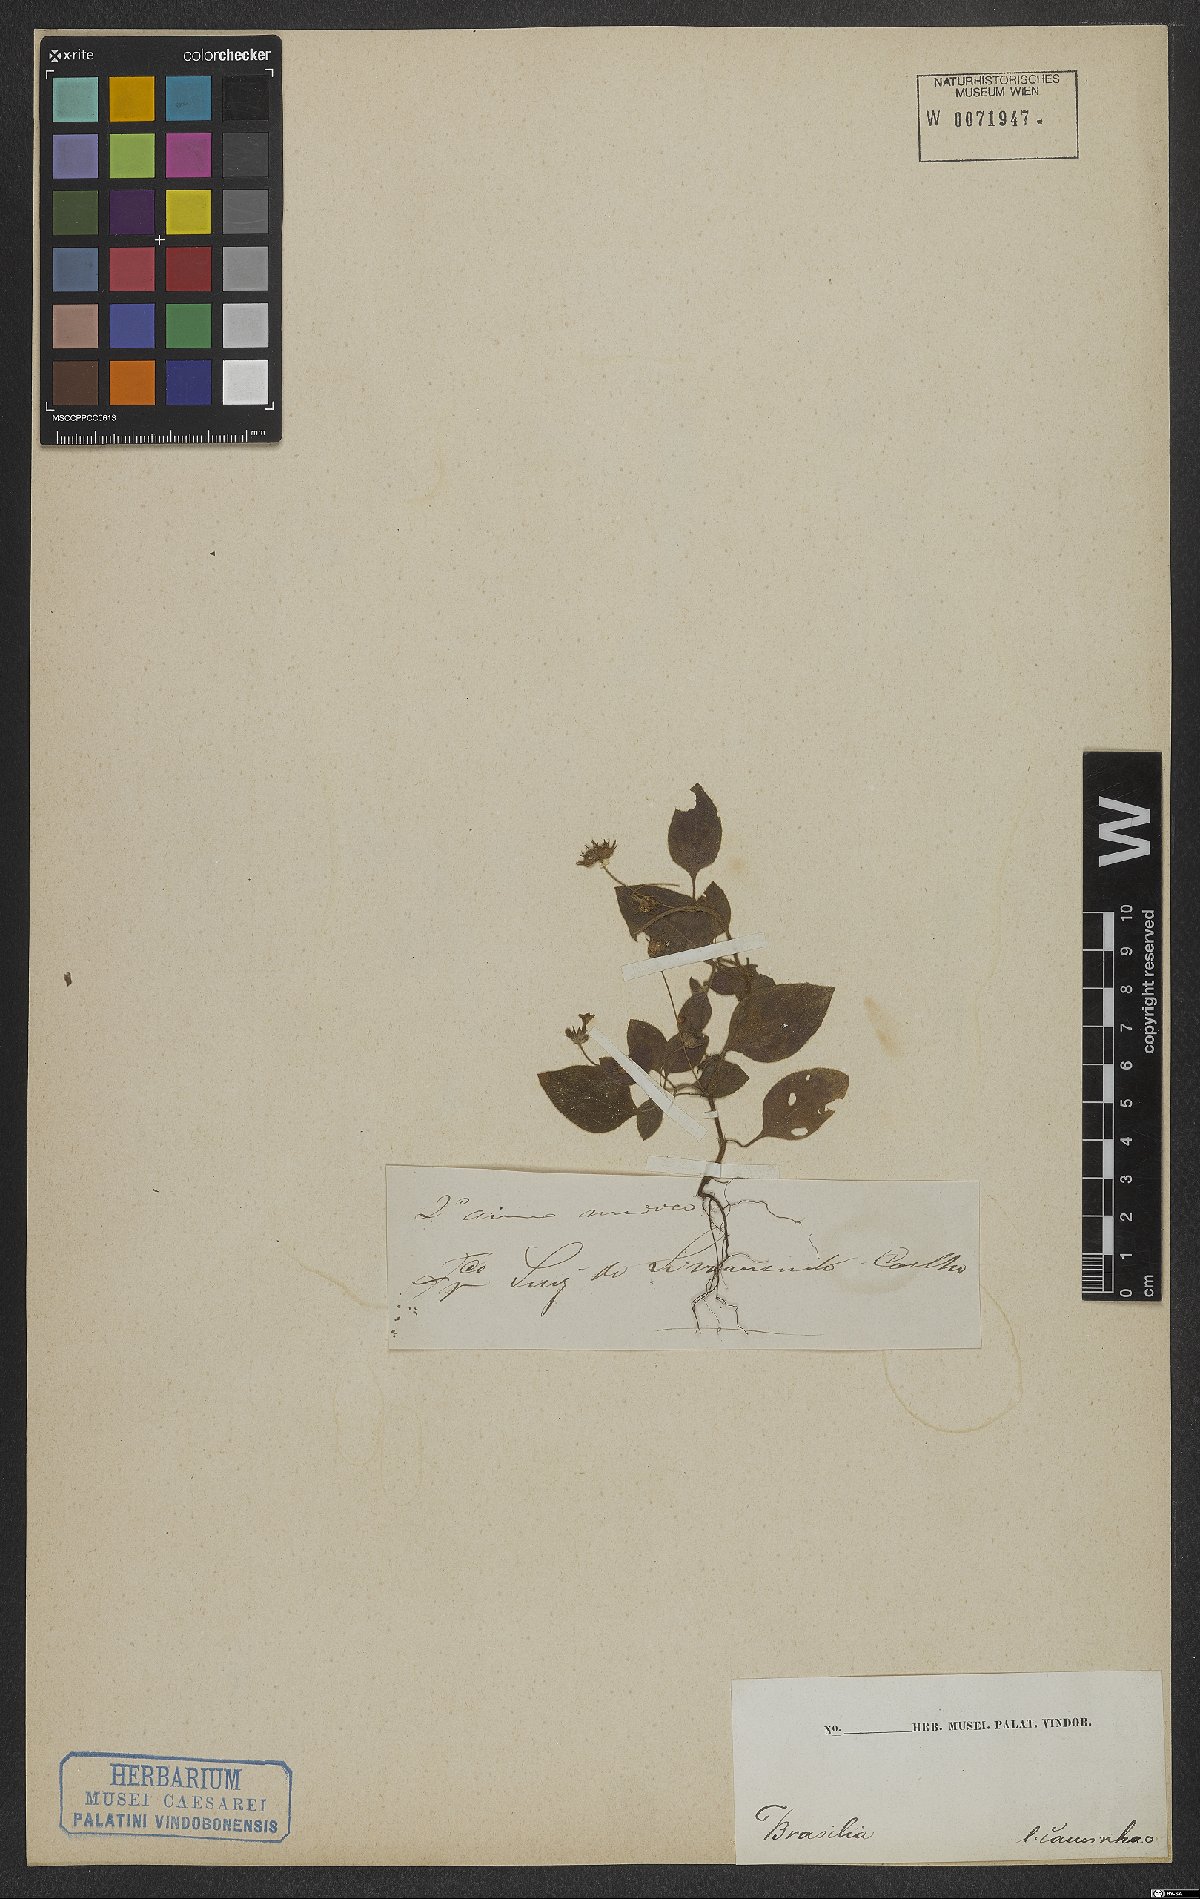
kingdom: Plantae
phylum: Tracheophyta
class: Magnoliopsida
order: Gentianales
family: Rubiaceae
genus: Coccocypselum
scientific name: Coccocypselum
